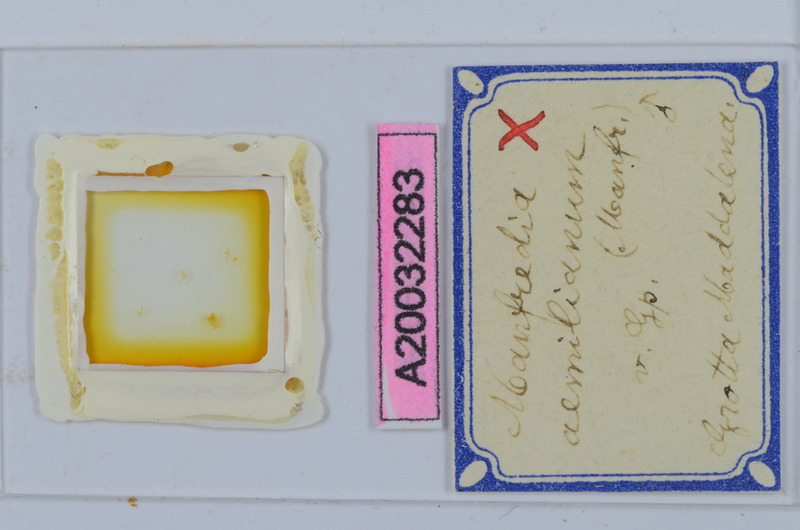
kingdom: Animalia
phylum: Arthropoda
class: Diplopoda
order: Chordeumatida
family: Craspedosomatidae
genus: Manfredia
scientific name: Manfredia aemiliana
